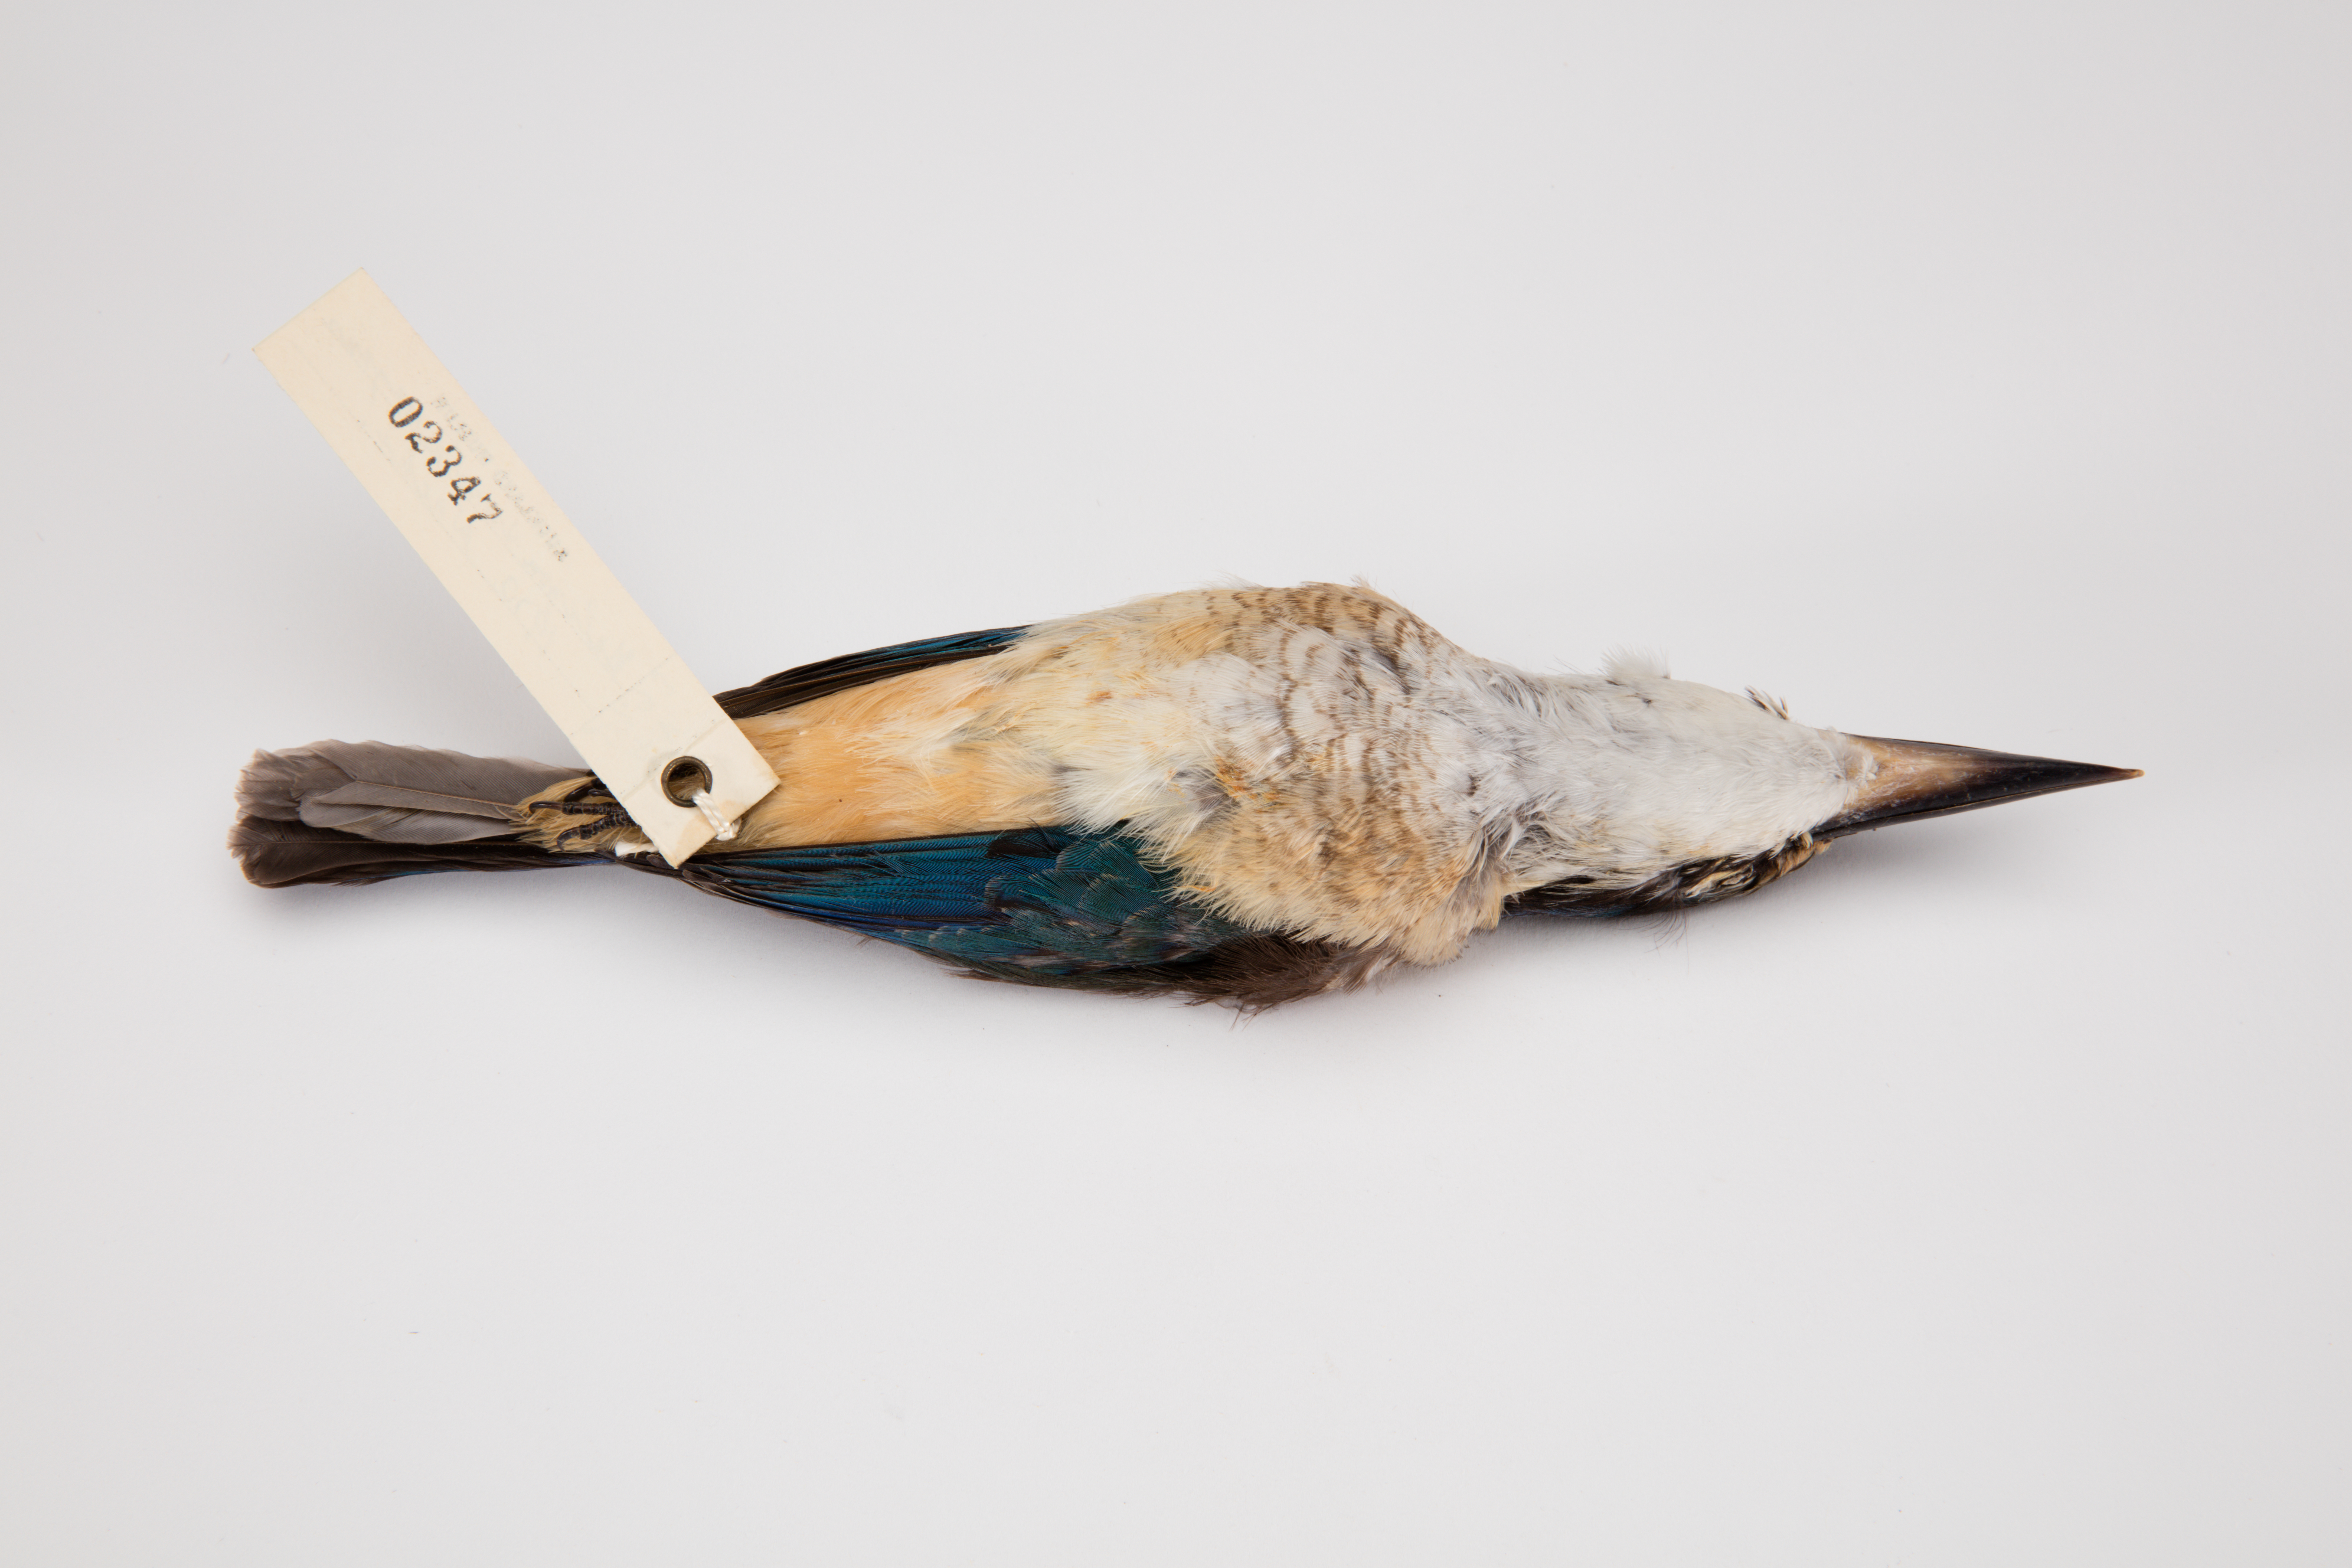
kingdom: Animalia
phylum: Chordata
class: Aves
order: Coraciiformes
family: Alcedinidae
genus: Todiramphus
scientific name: Todiramphus sanctus
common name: Sacred kingfisher
